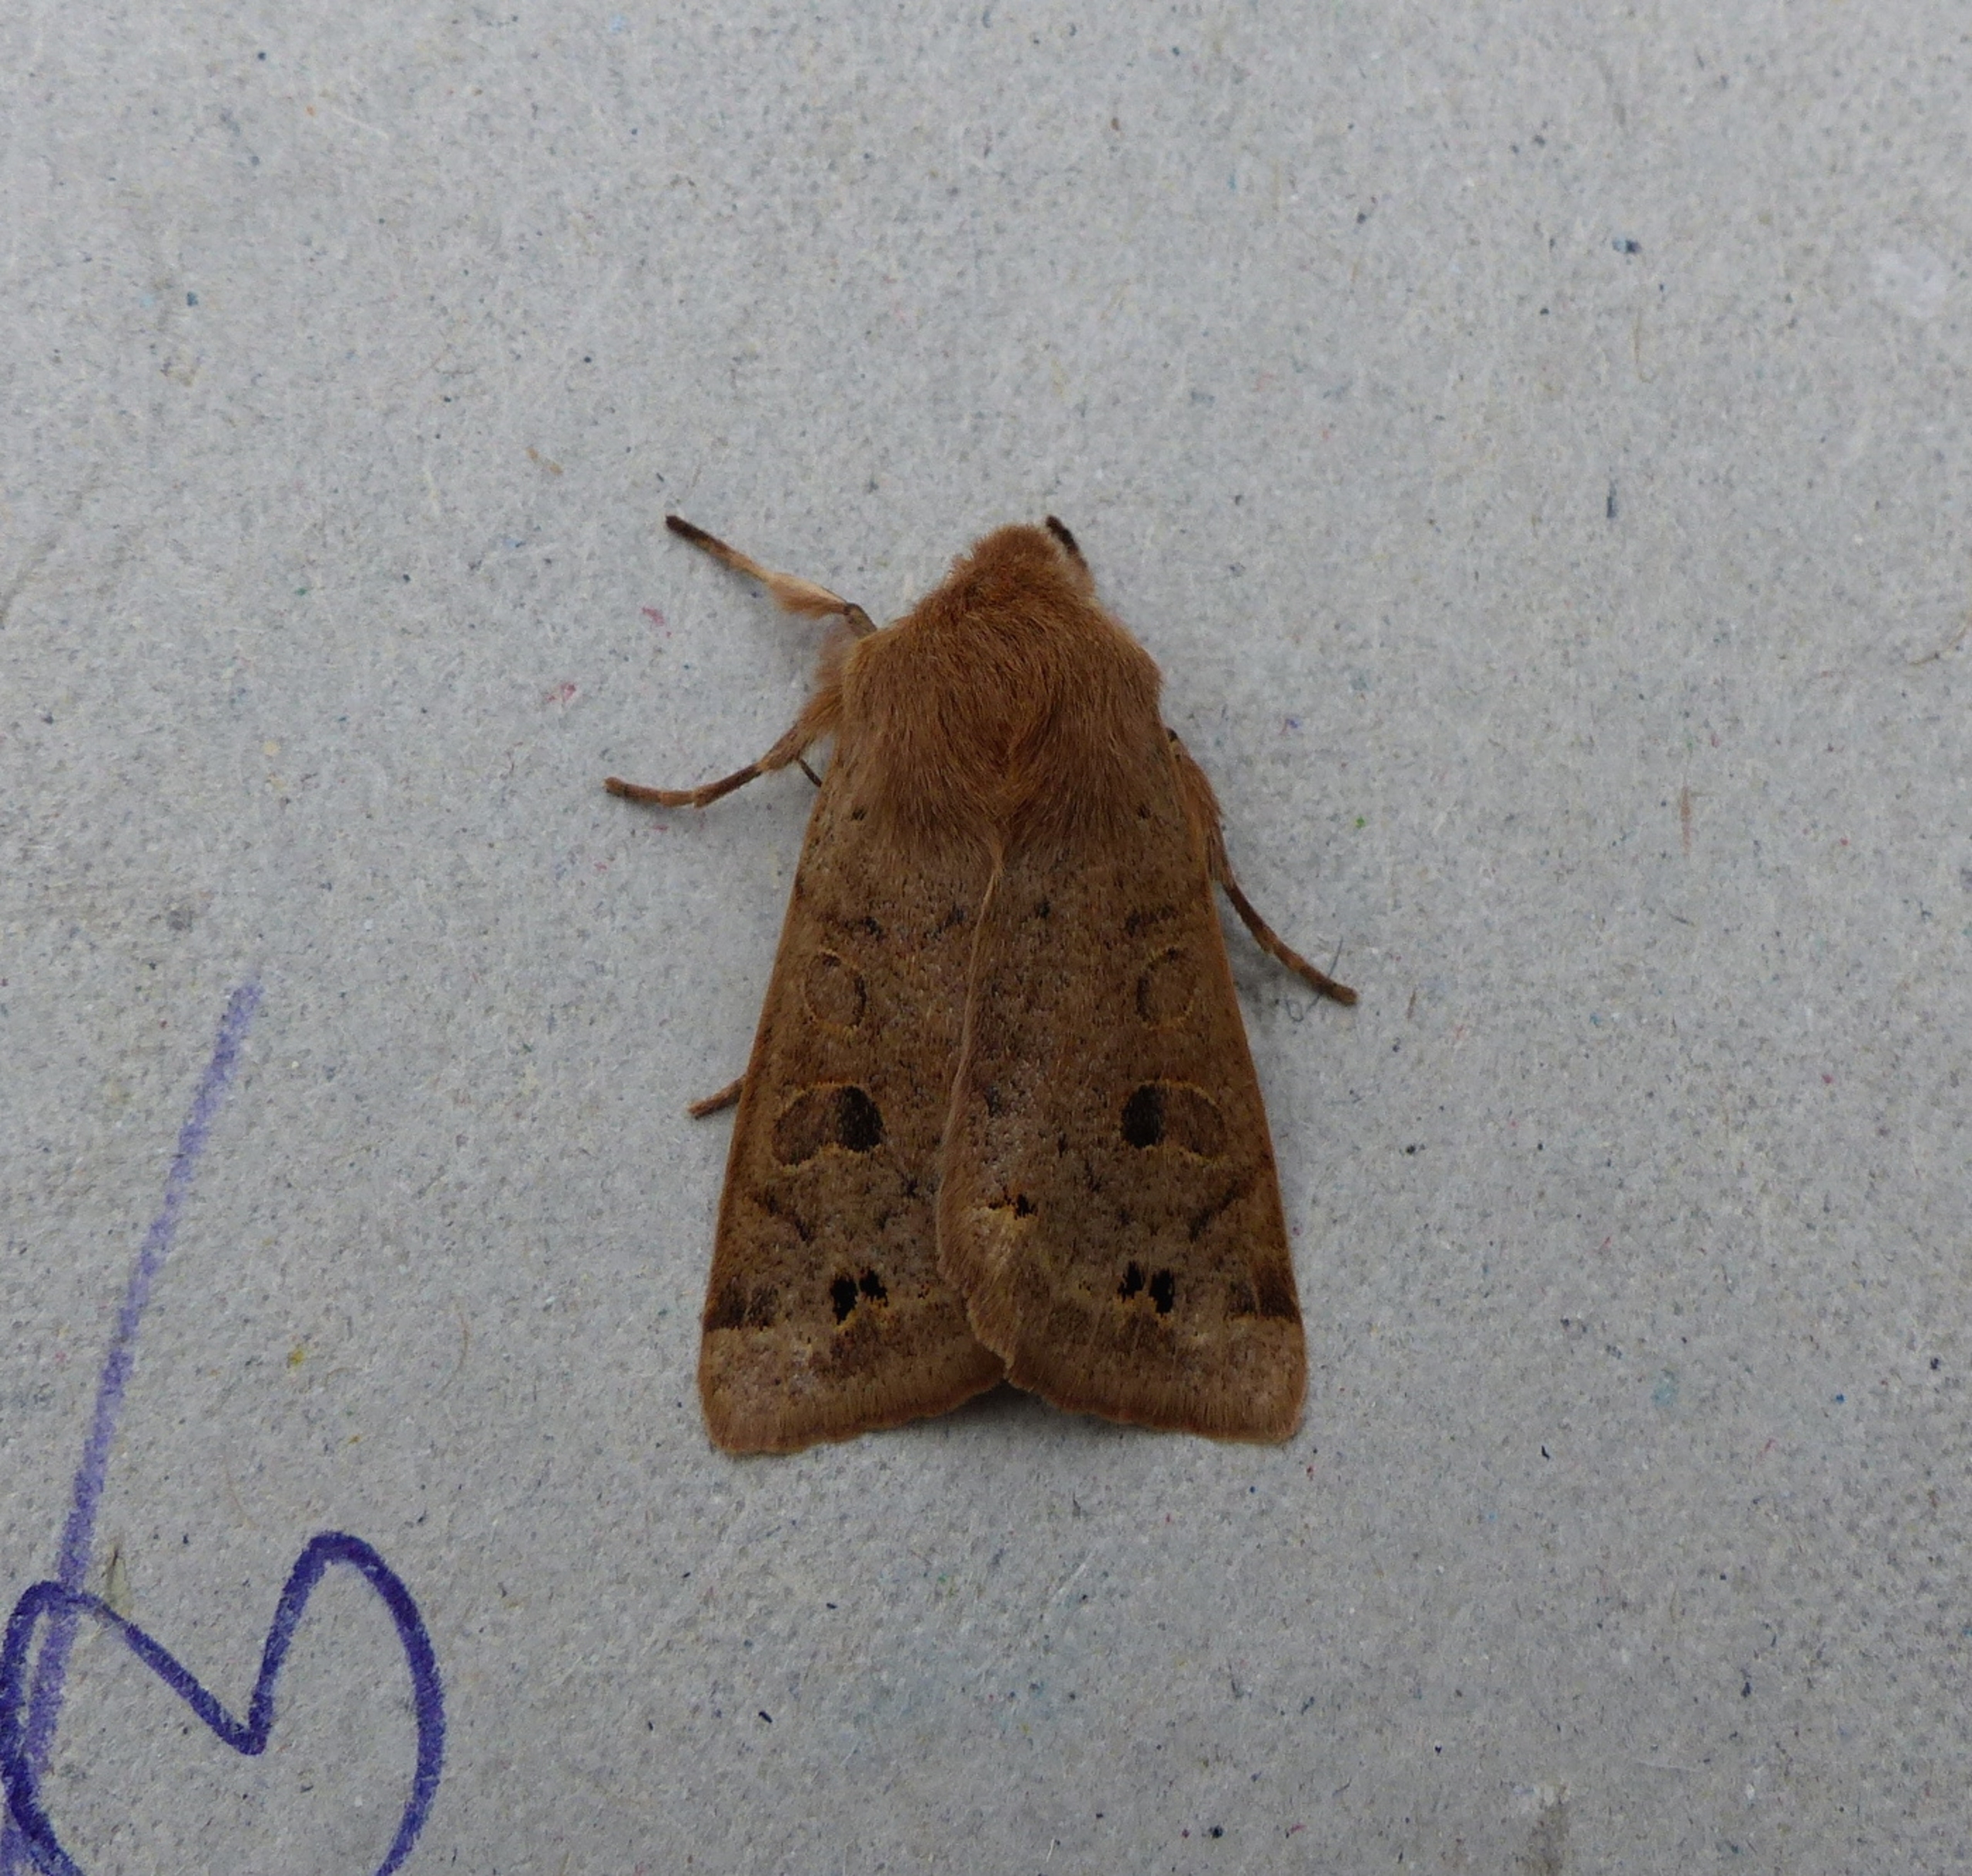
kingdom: Animalia
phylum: Arthropoda
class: Insecta
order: Lepidoptera
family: Noctuidae
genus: Anorthoa
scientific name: Anorthoa munda
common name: Toplet forårsugle
